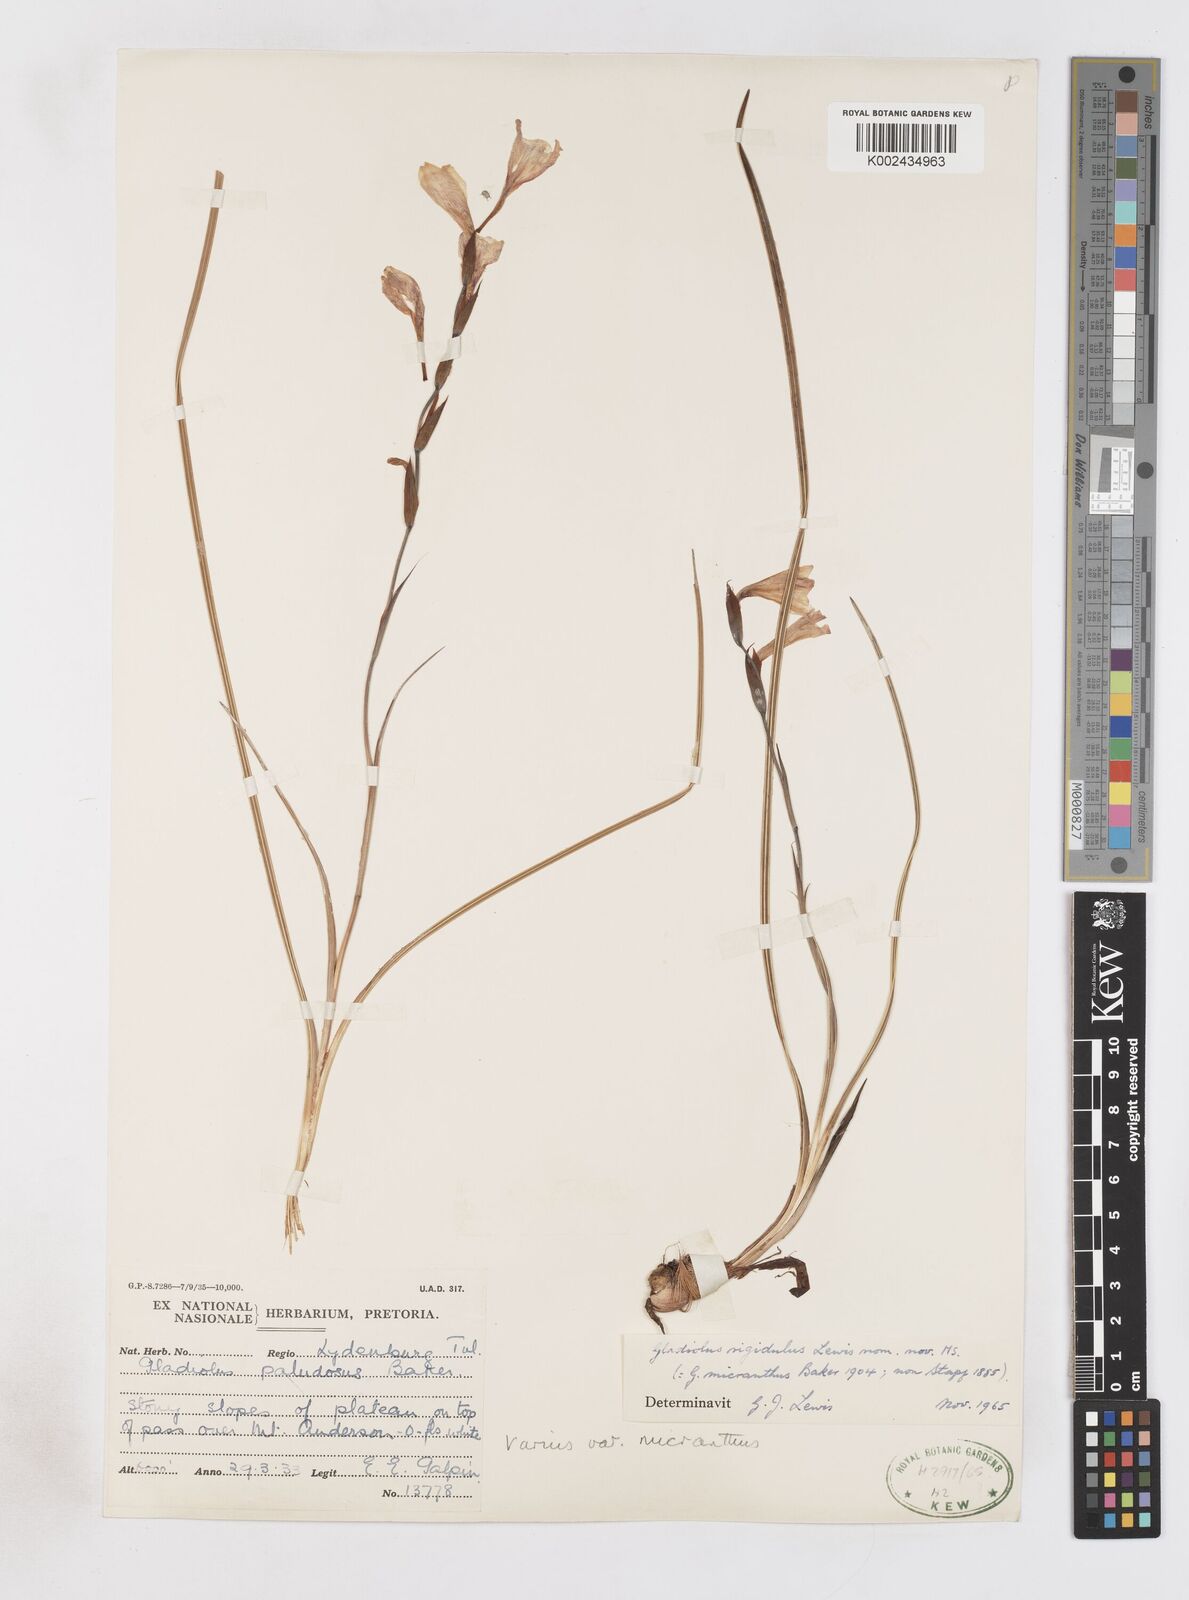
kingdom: Plantae
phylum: Tracheophyta
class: Liliopsida
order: Asparagales
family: Iridaceae
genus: Gladiolus
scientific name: Gladiolus ferrugineus
